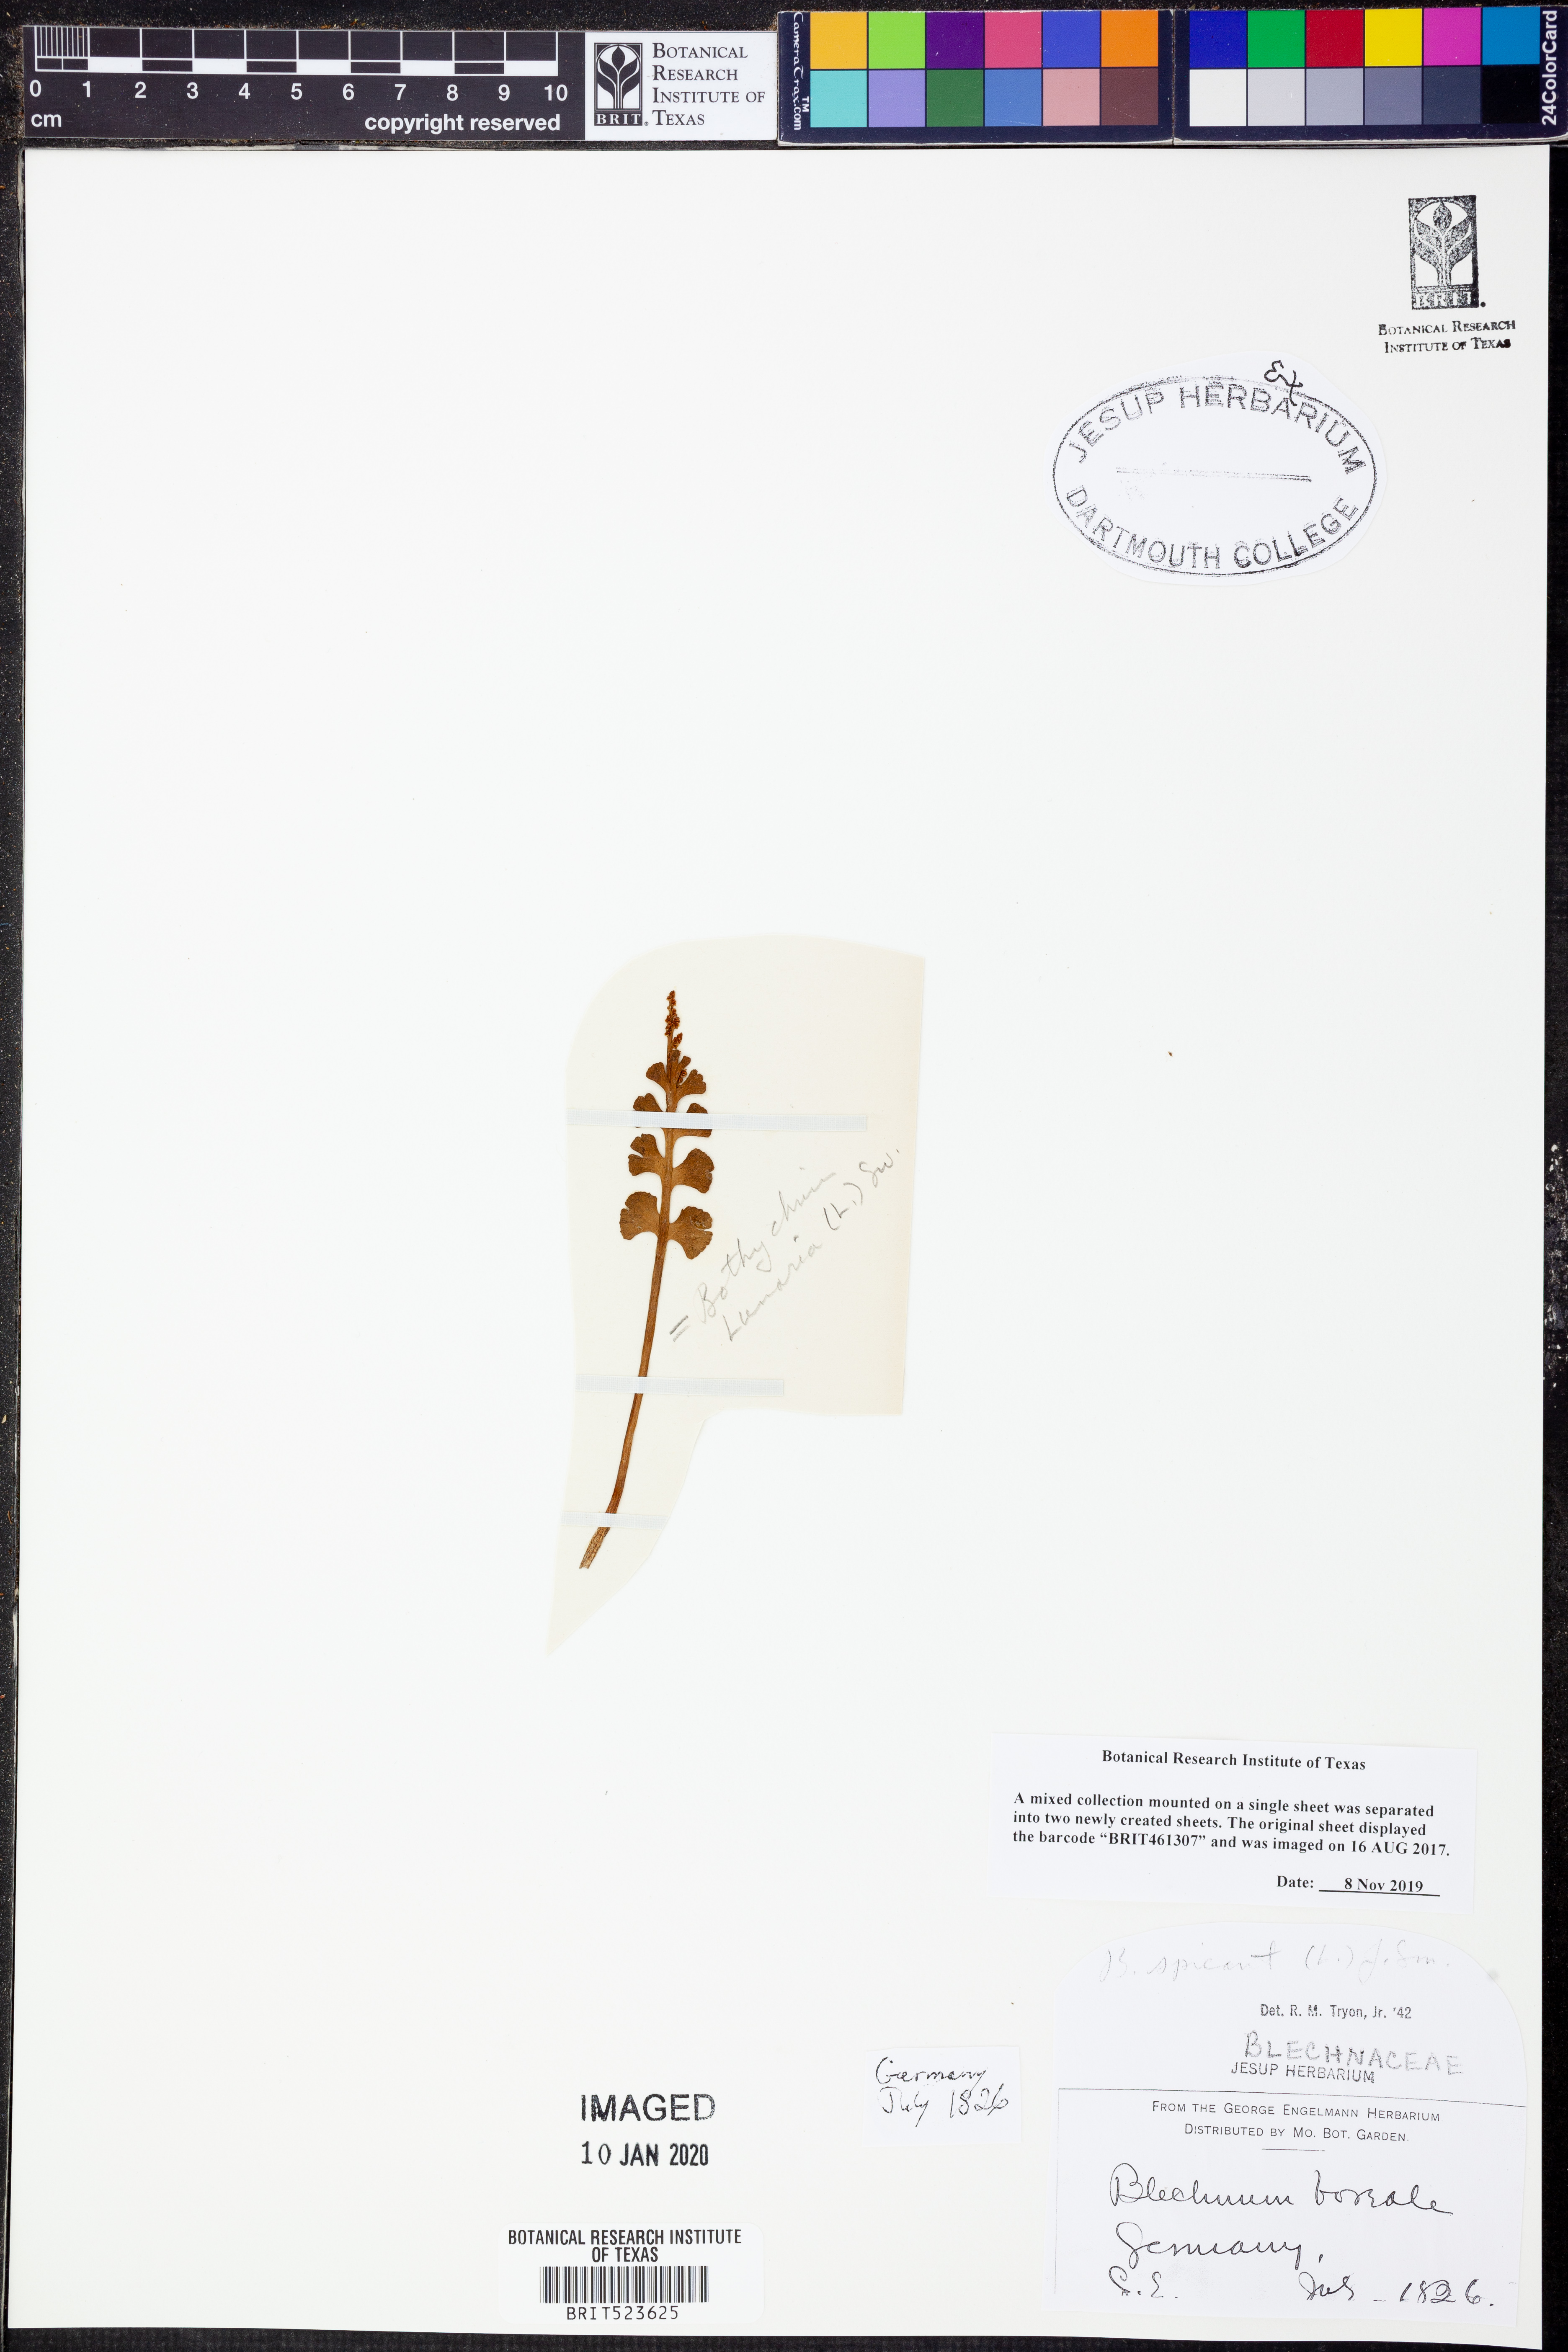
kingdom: Plantae
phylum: Tracheophyta
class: Polypodiopsida
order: Ophioglossales
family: Ophioglossaceae
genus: Botrychium
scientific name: Botrychium lunaria
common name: Moonwort
